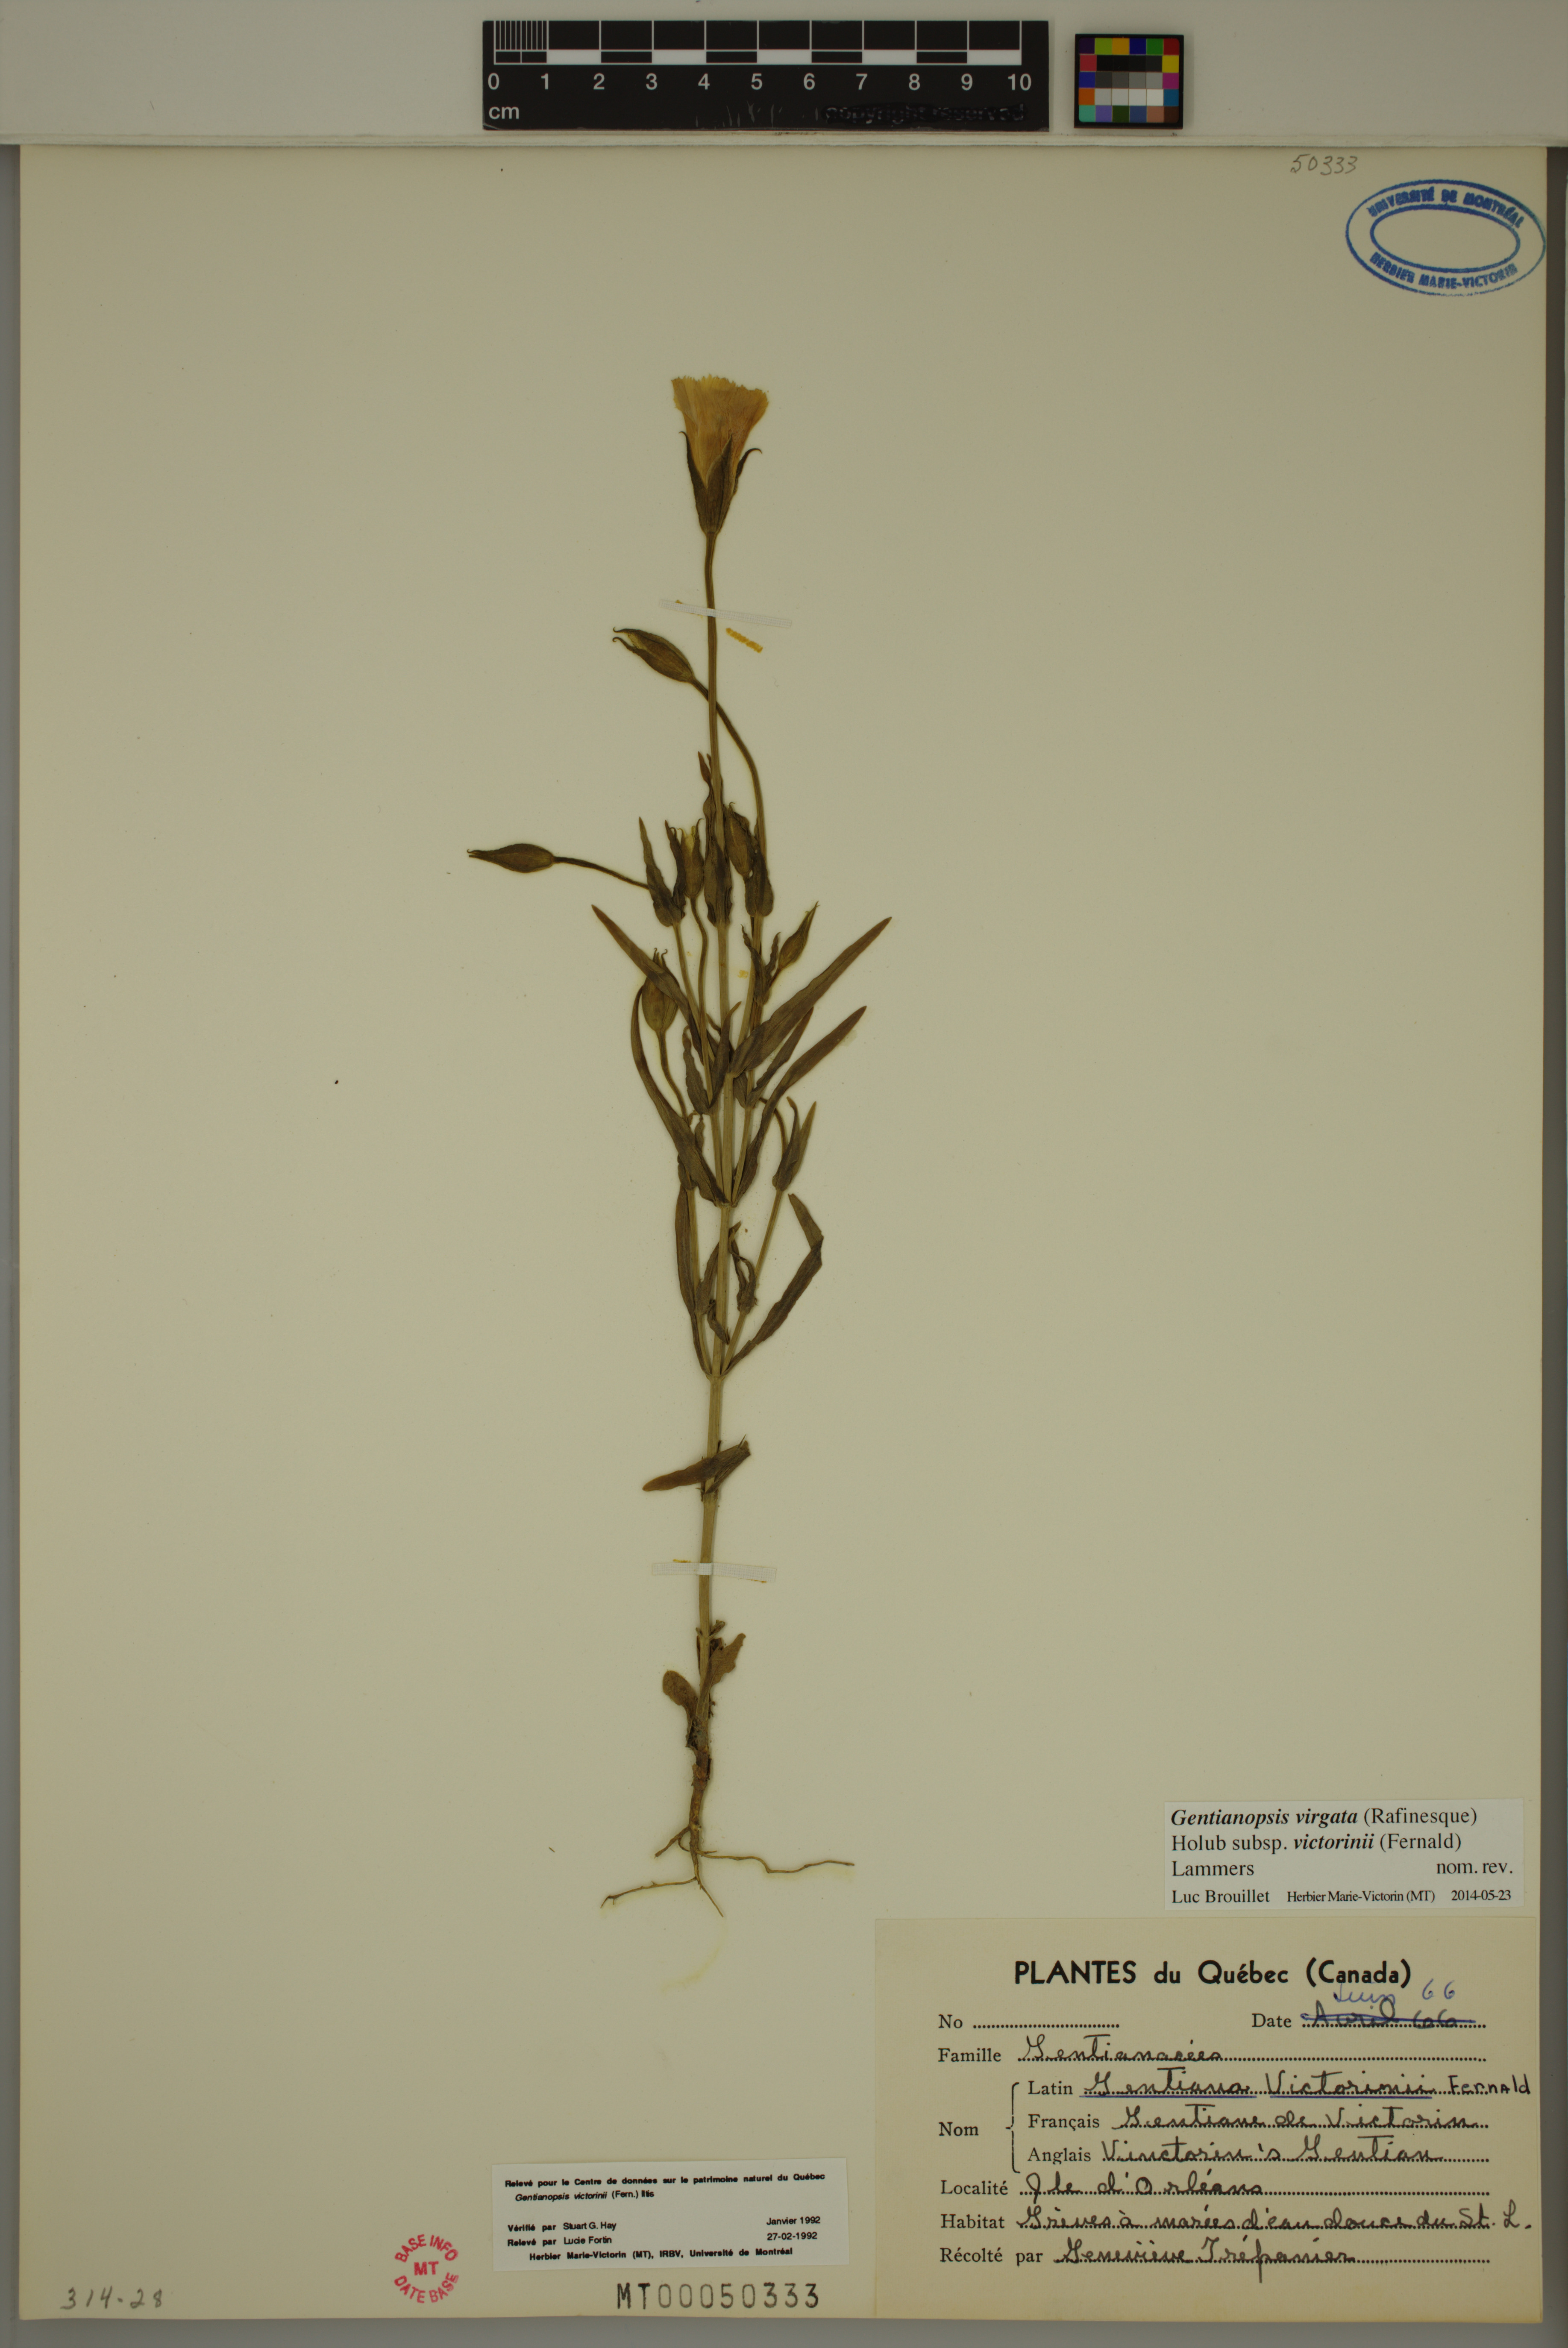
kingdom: Plantae
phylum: Tracheophyta
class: Magnoliopsida
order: Gentianales
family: Gentianaceae
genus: Gentianopsis
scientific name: Gentianopsis victorinii
